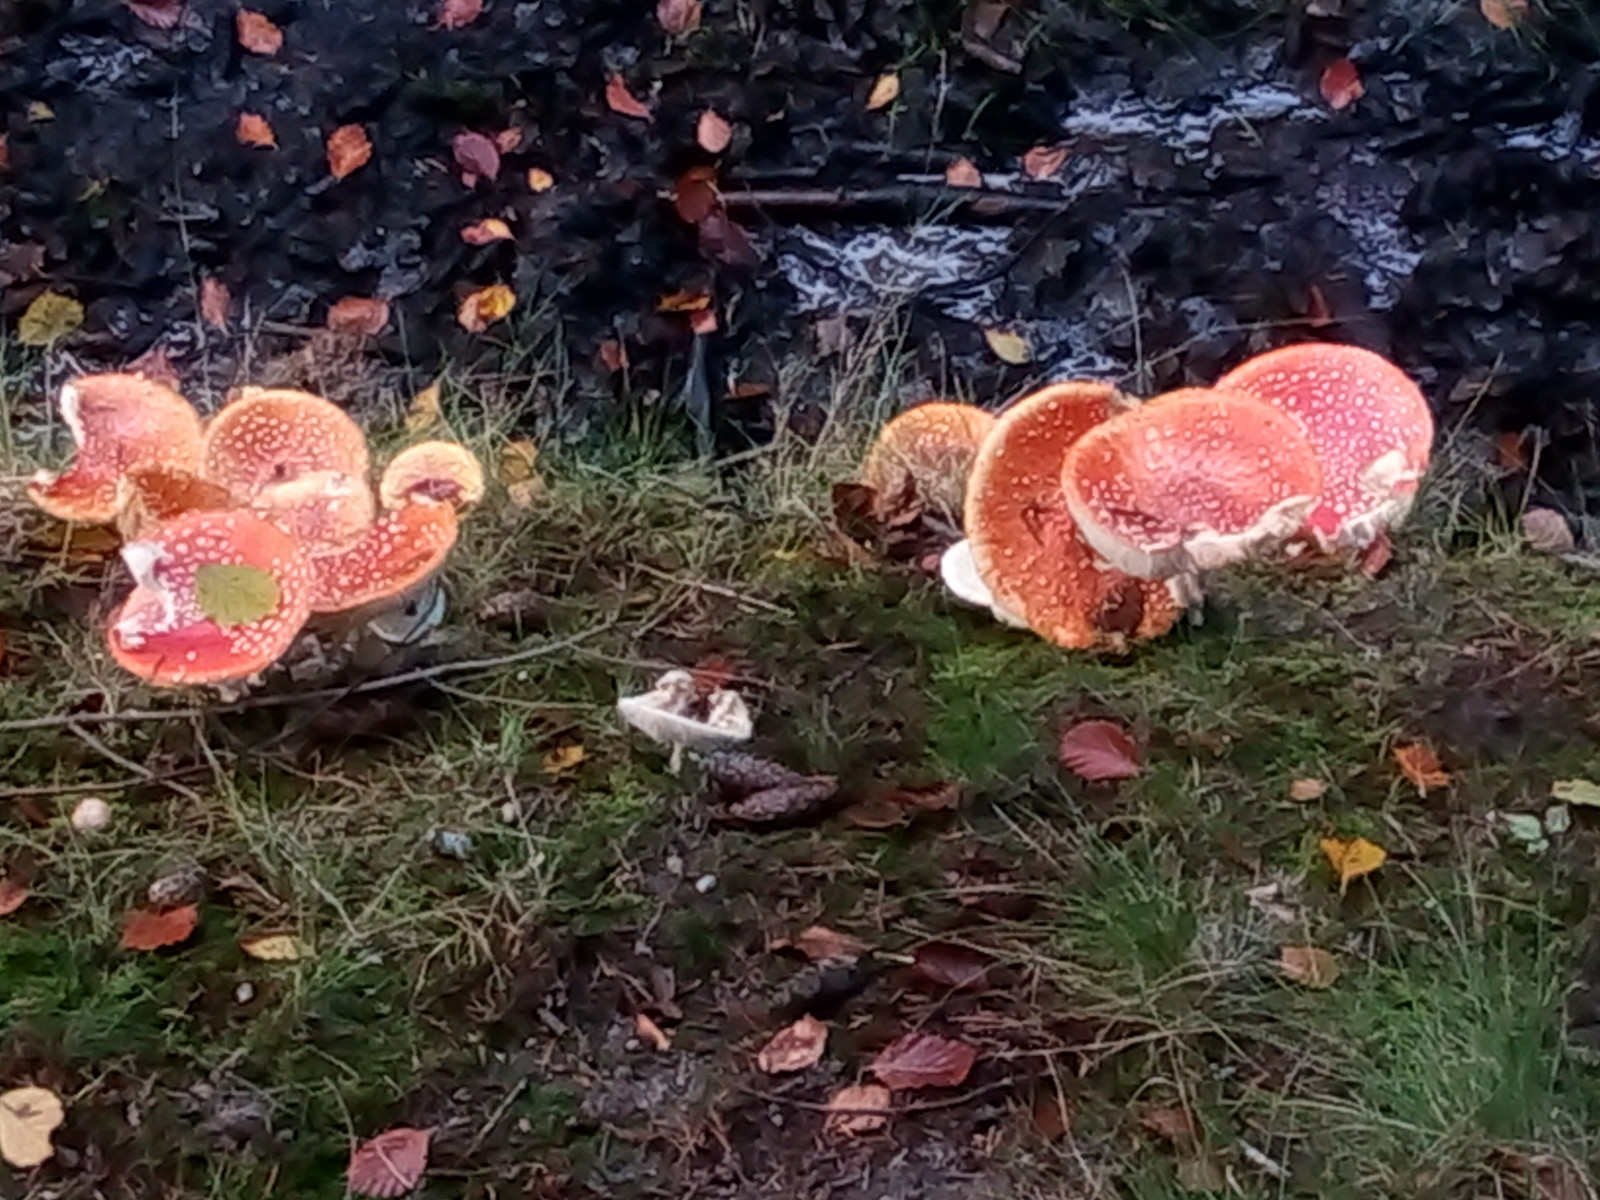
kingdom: Fungi
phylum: Basidiomycota
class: Agaricomycetes
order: Agaricales
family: Amanitaceae
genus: Amanita
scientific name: Amanita muscaria
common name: rød fluesvamp
